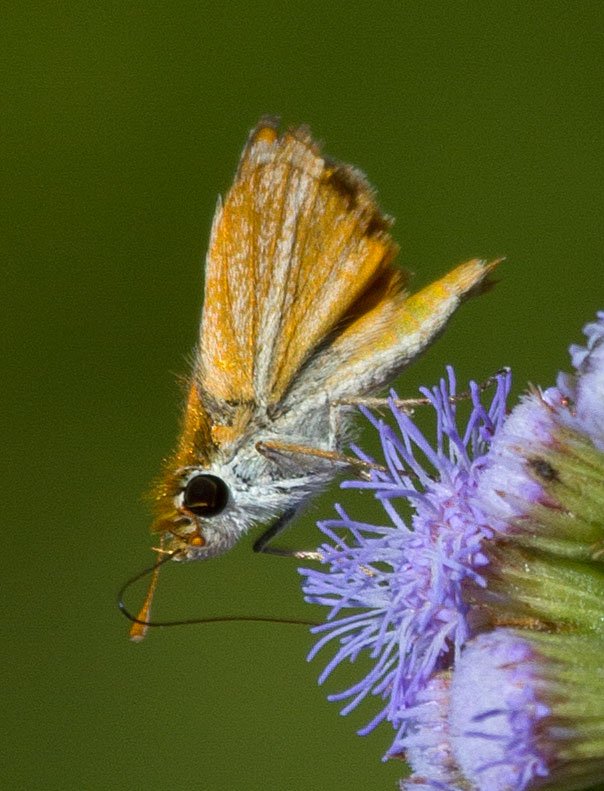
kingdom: Animalia
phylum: Arthropoda
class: Insecta
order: Lepidoptera
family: Hesperiidae
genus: Copaeodes
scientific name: Copaeodes minima
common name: Southern Skipperling
